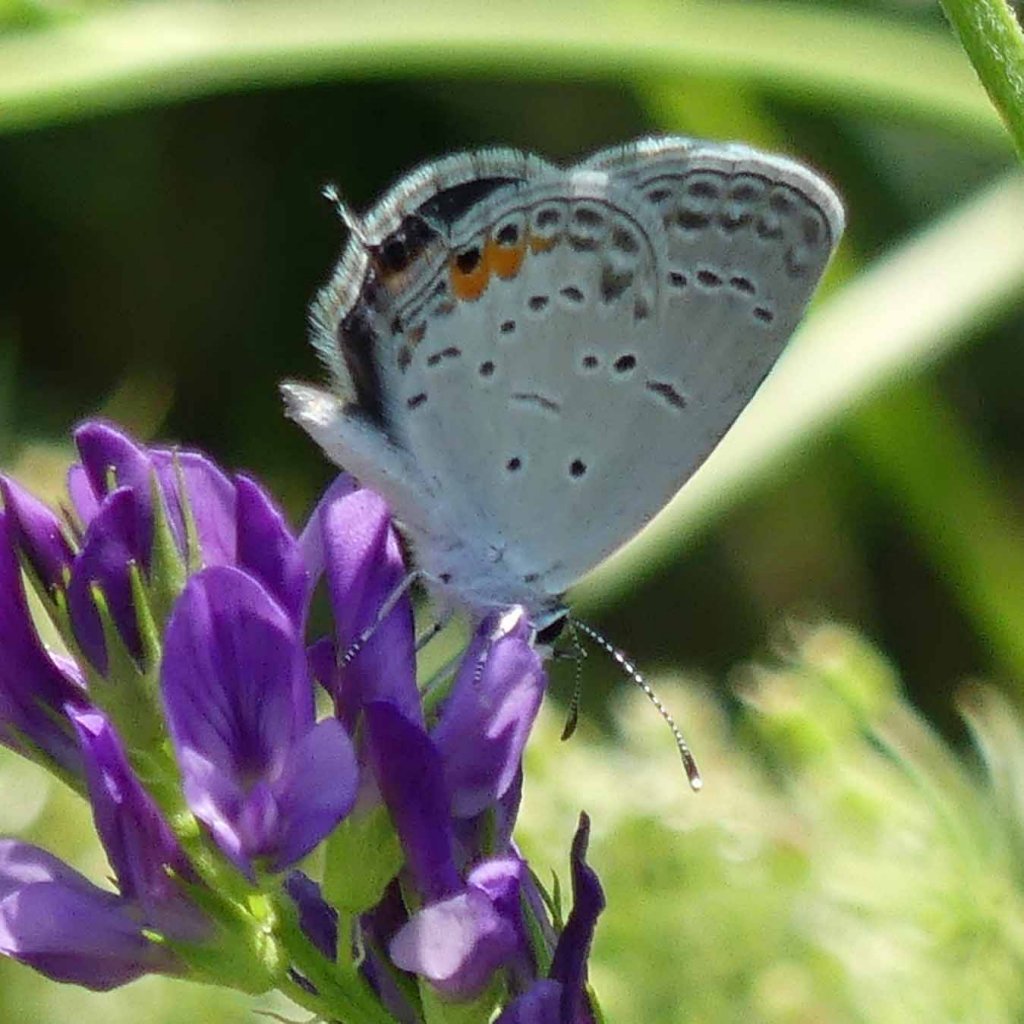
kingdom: Animalia
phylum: Arthropoda
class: Insecta
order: Lepidoptera
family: Lycaenidae
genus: Elkalyce
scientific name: Elkalyce comyntas
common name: Eastern Tailed-Blue
